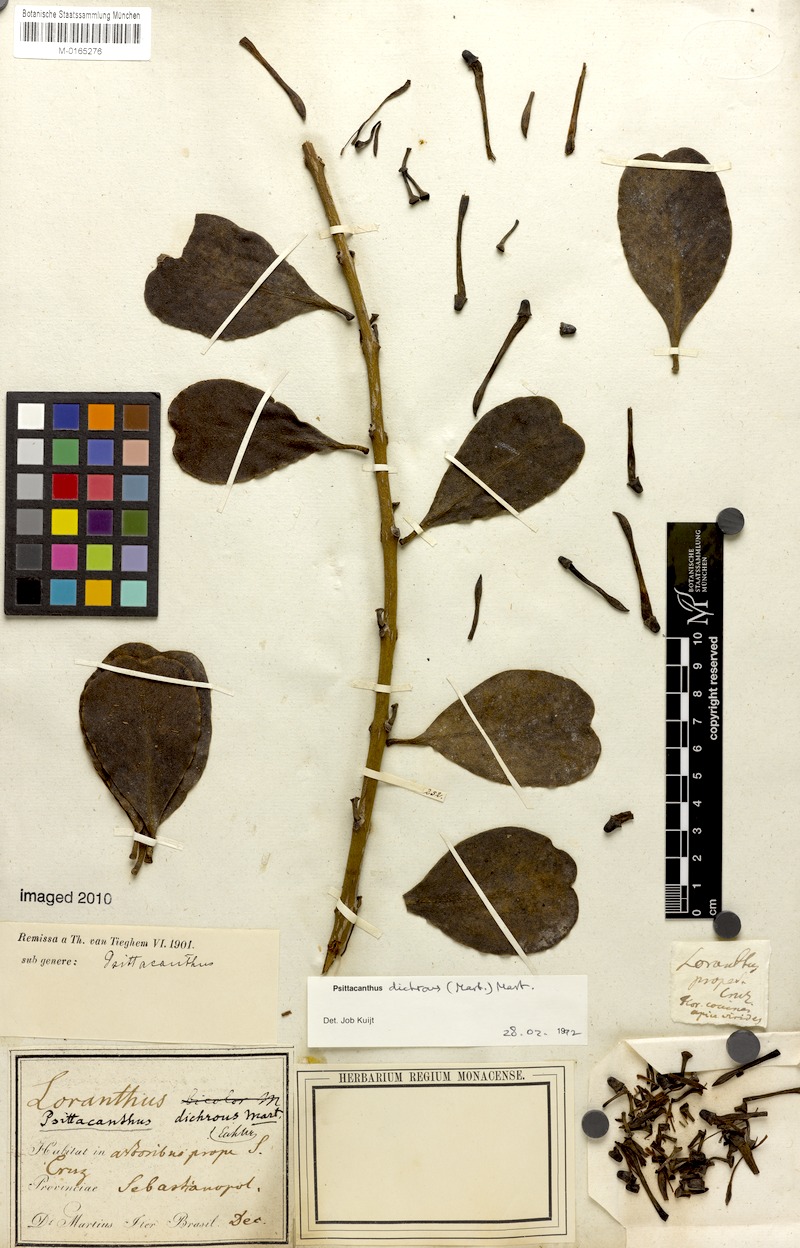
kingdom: Plantae
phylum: Tracheophyta
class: Magnoliopsida
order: Santalales
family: Loranthaceae
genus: Psittacanthus
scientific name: Psittacanthus dichroos
